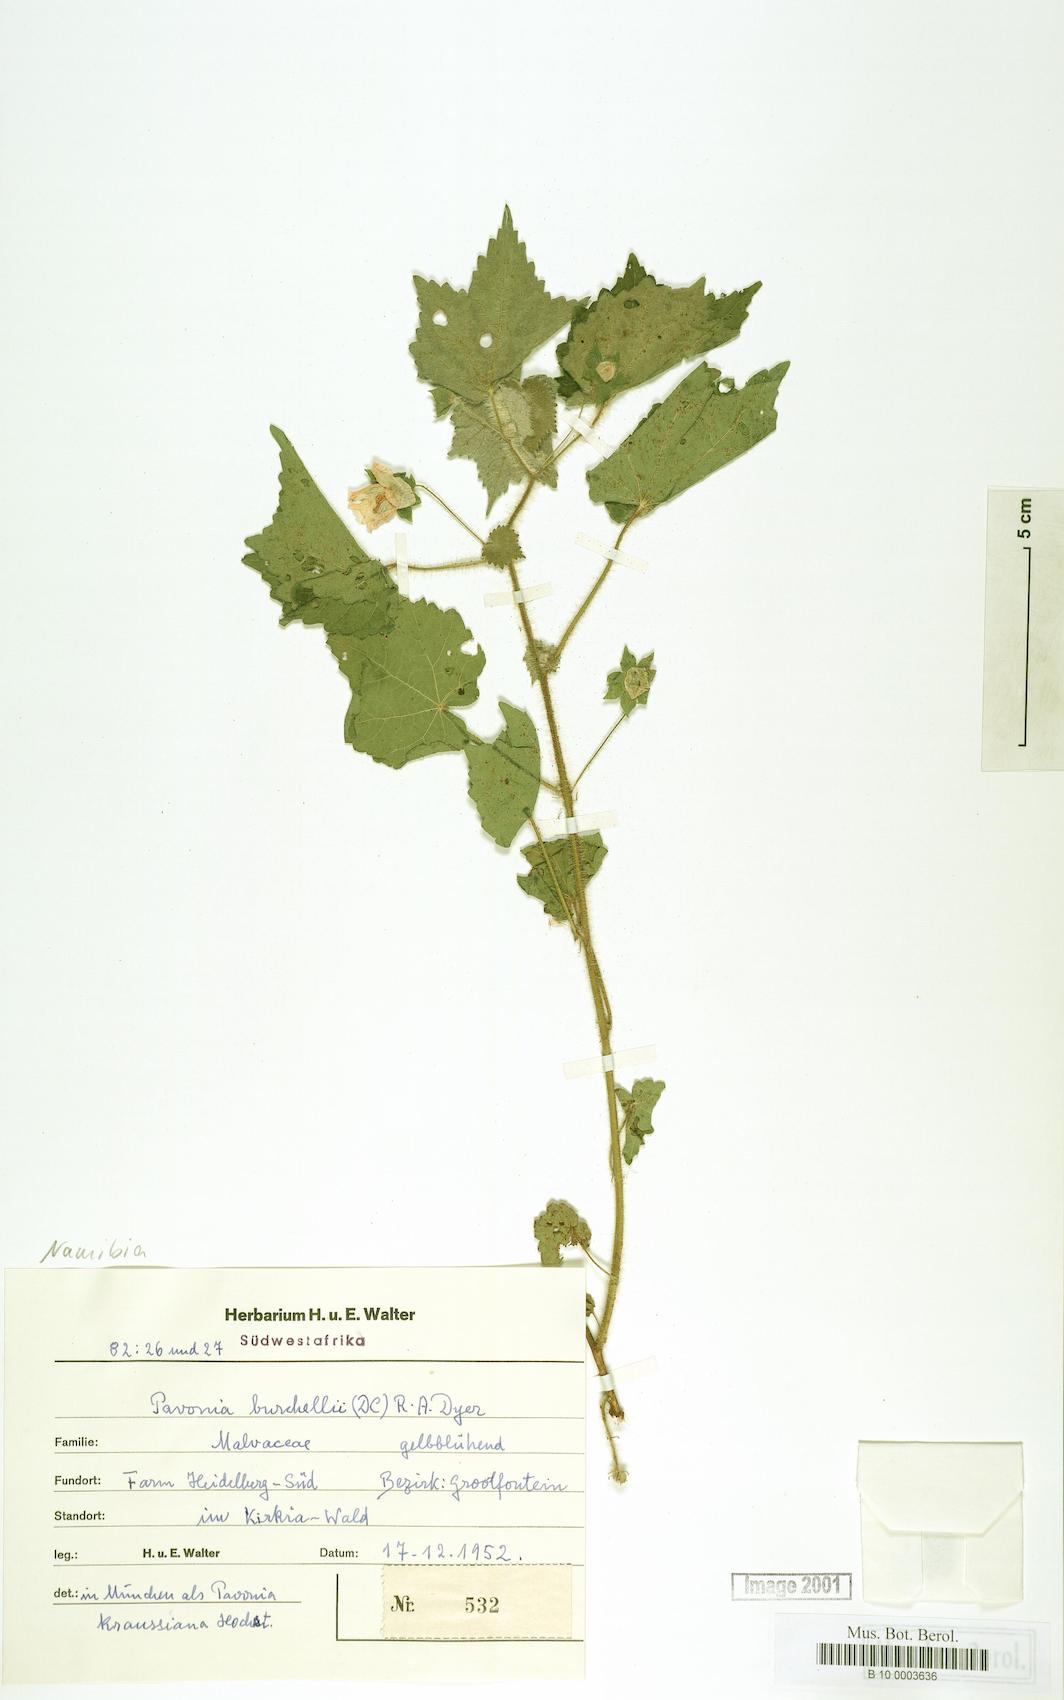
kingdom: Plantae
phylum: Tracheophyta
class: Magnoliopsida
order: Malvales
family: Malvaceae
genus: Pavonia
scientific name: Pavonia burchellii
